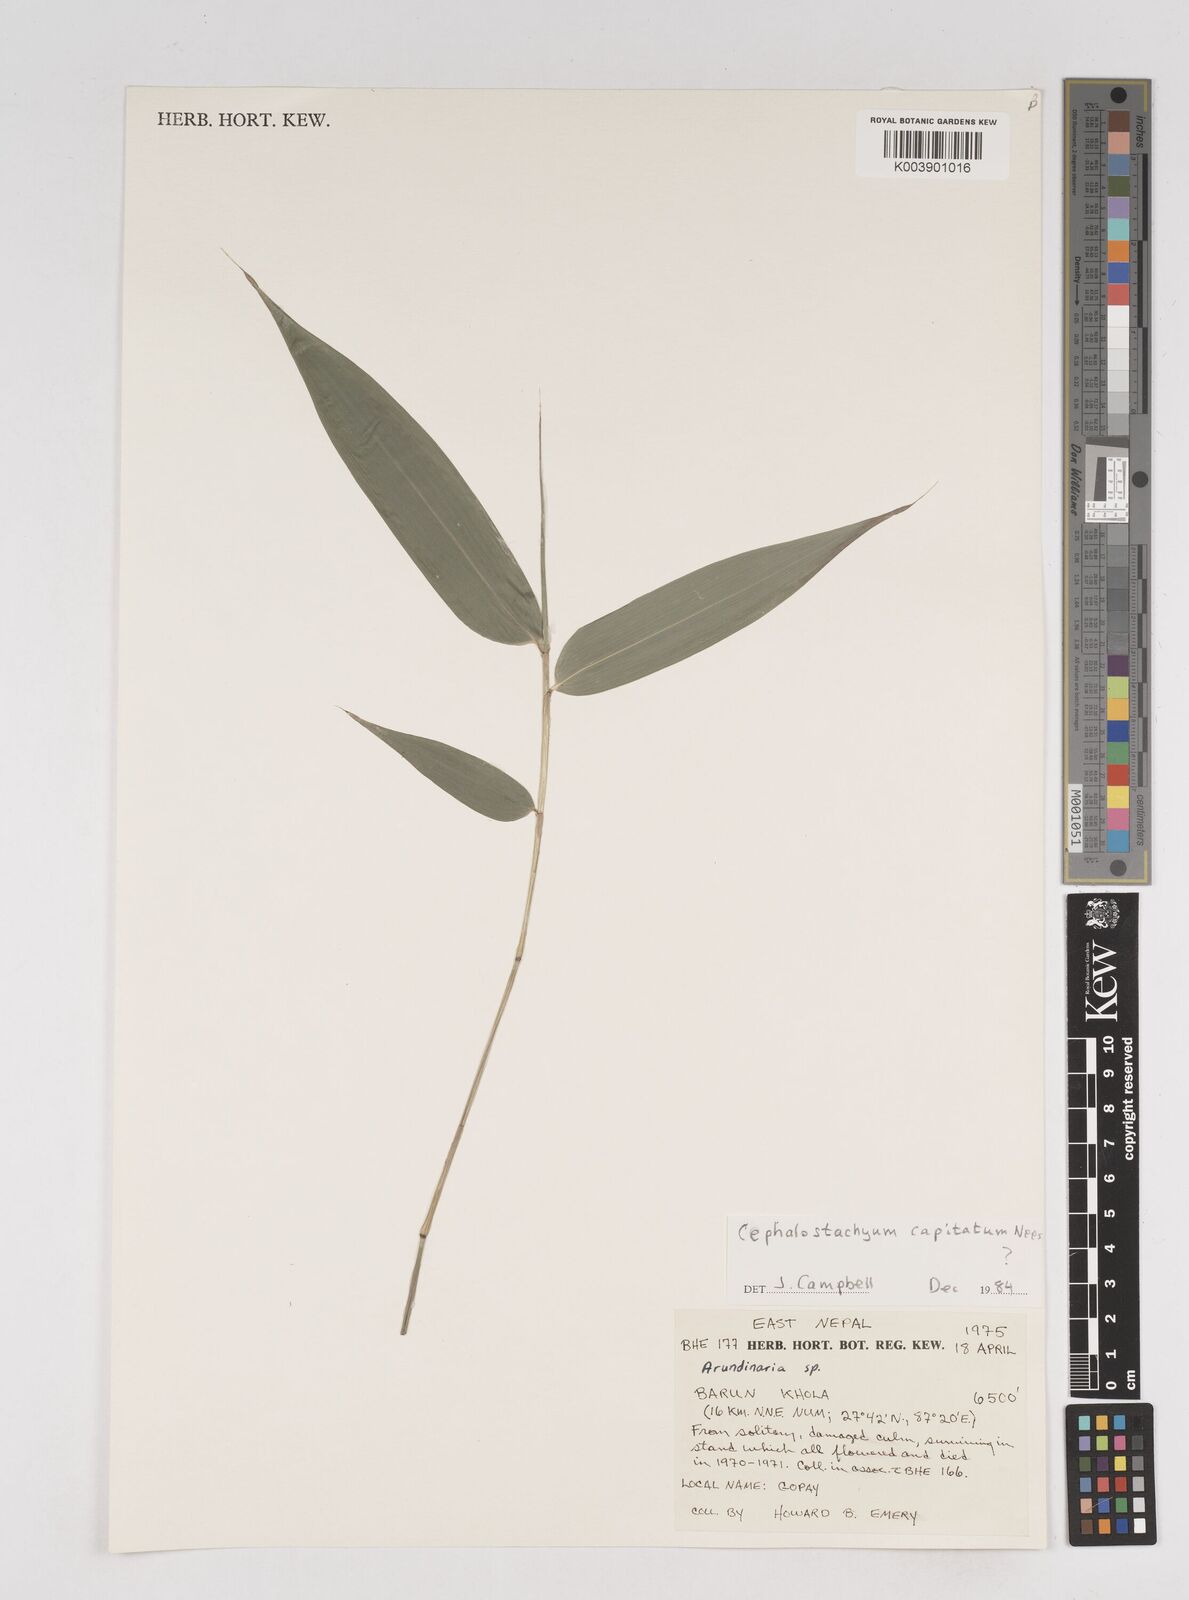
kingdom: Plantae
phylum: Tracheophyta
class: Liliopsida
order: Poales
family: Poaceae
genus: Cephalostachyum
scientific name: Cephalostachyum latifolium
